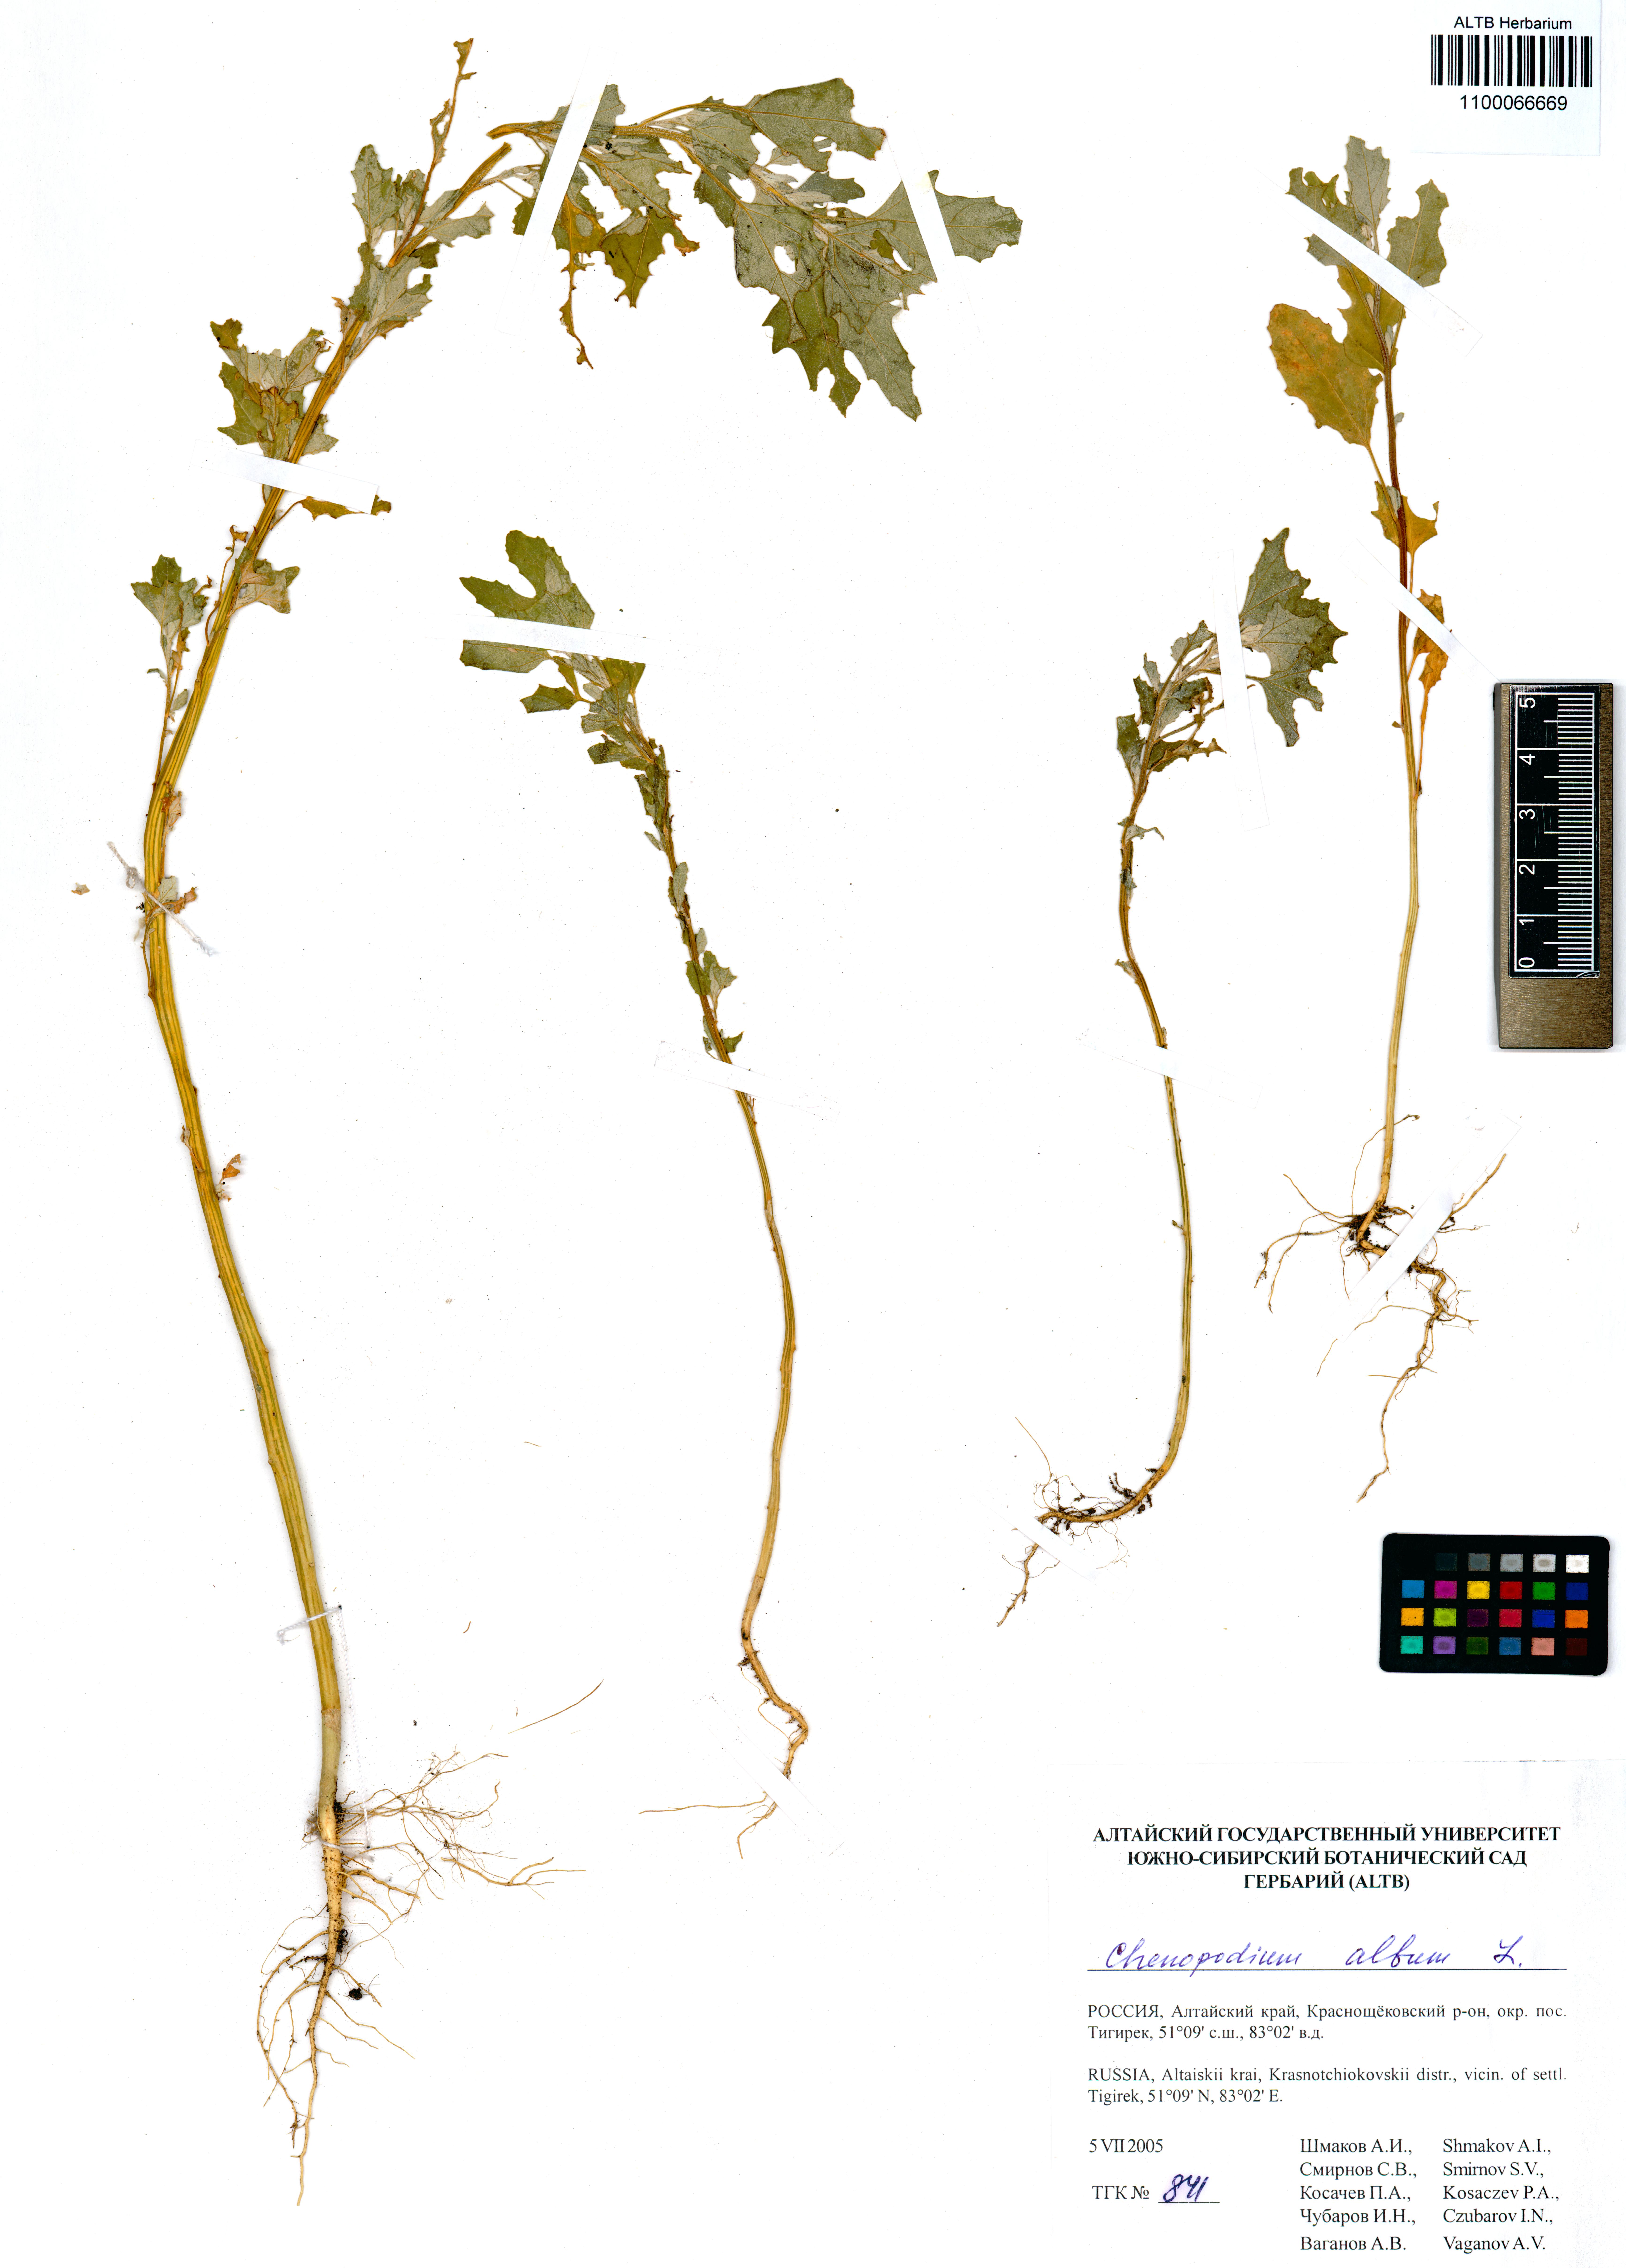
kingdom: Plantae
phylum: Tracheophyta
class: Magnoliopsida
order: Caryophyllales
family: Amaranthaceae
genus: Chenopodium
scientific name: Chenopodium album
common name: Fat-hen
